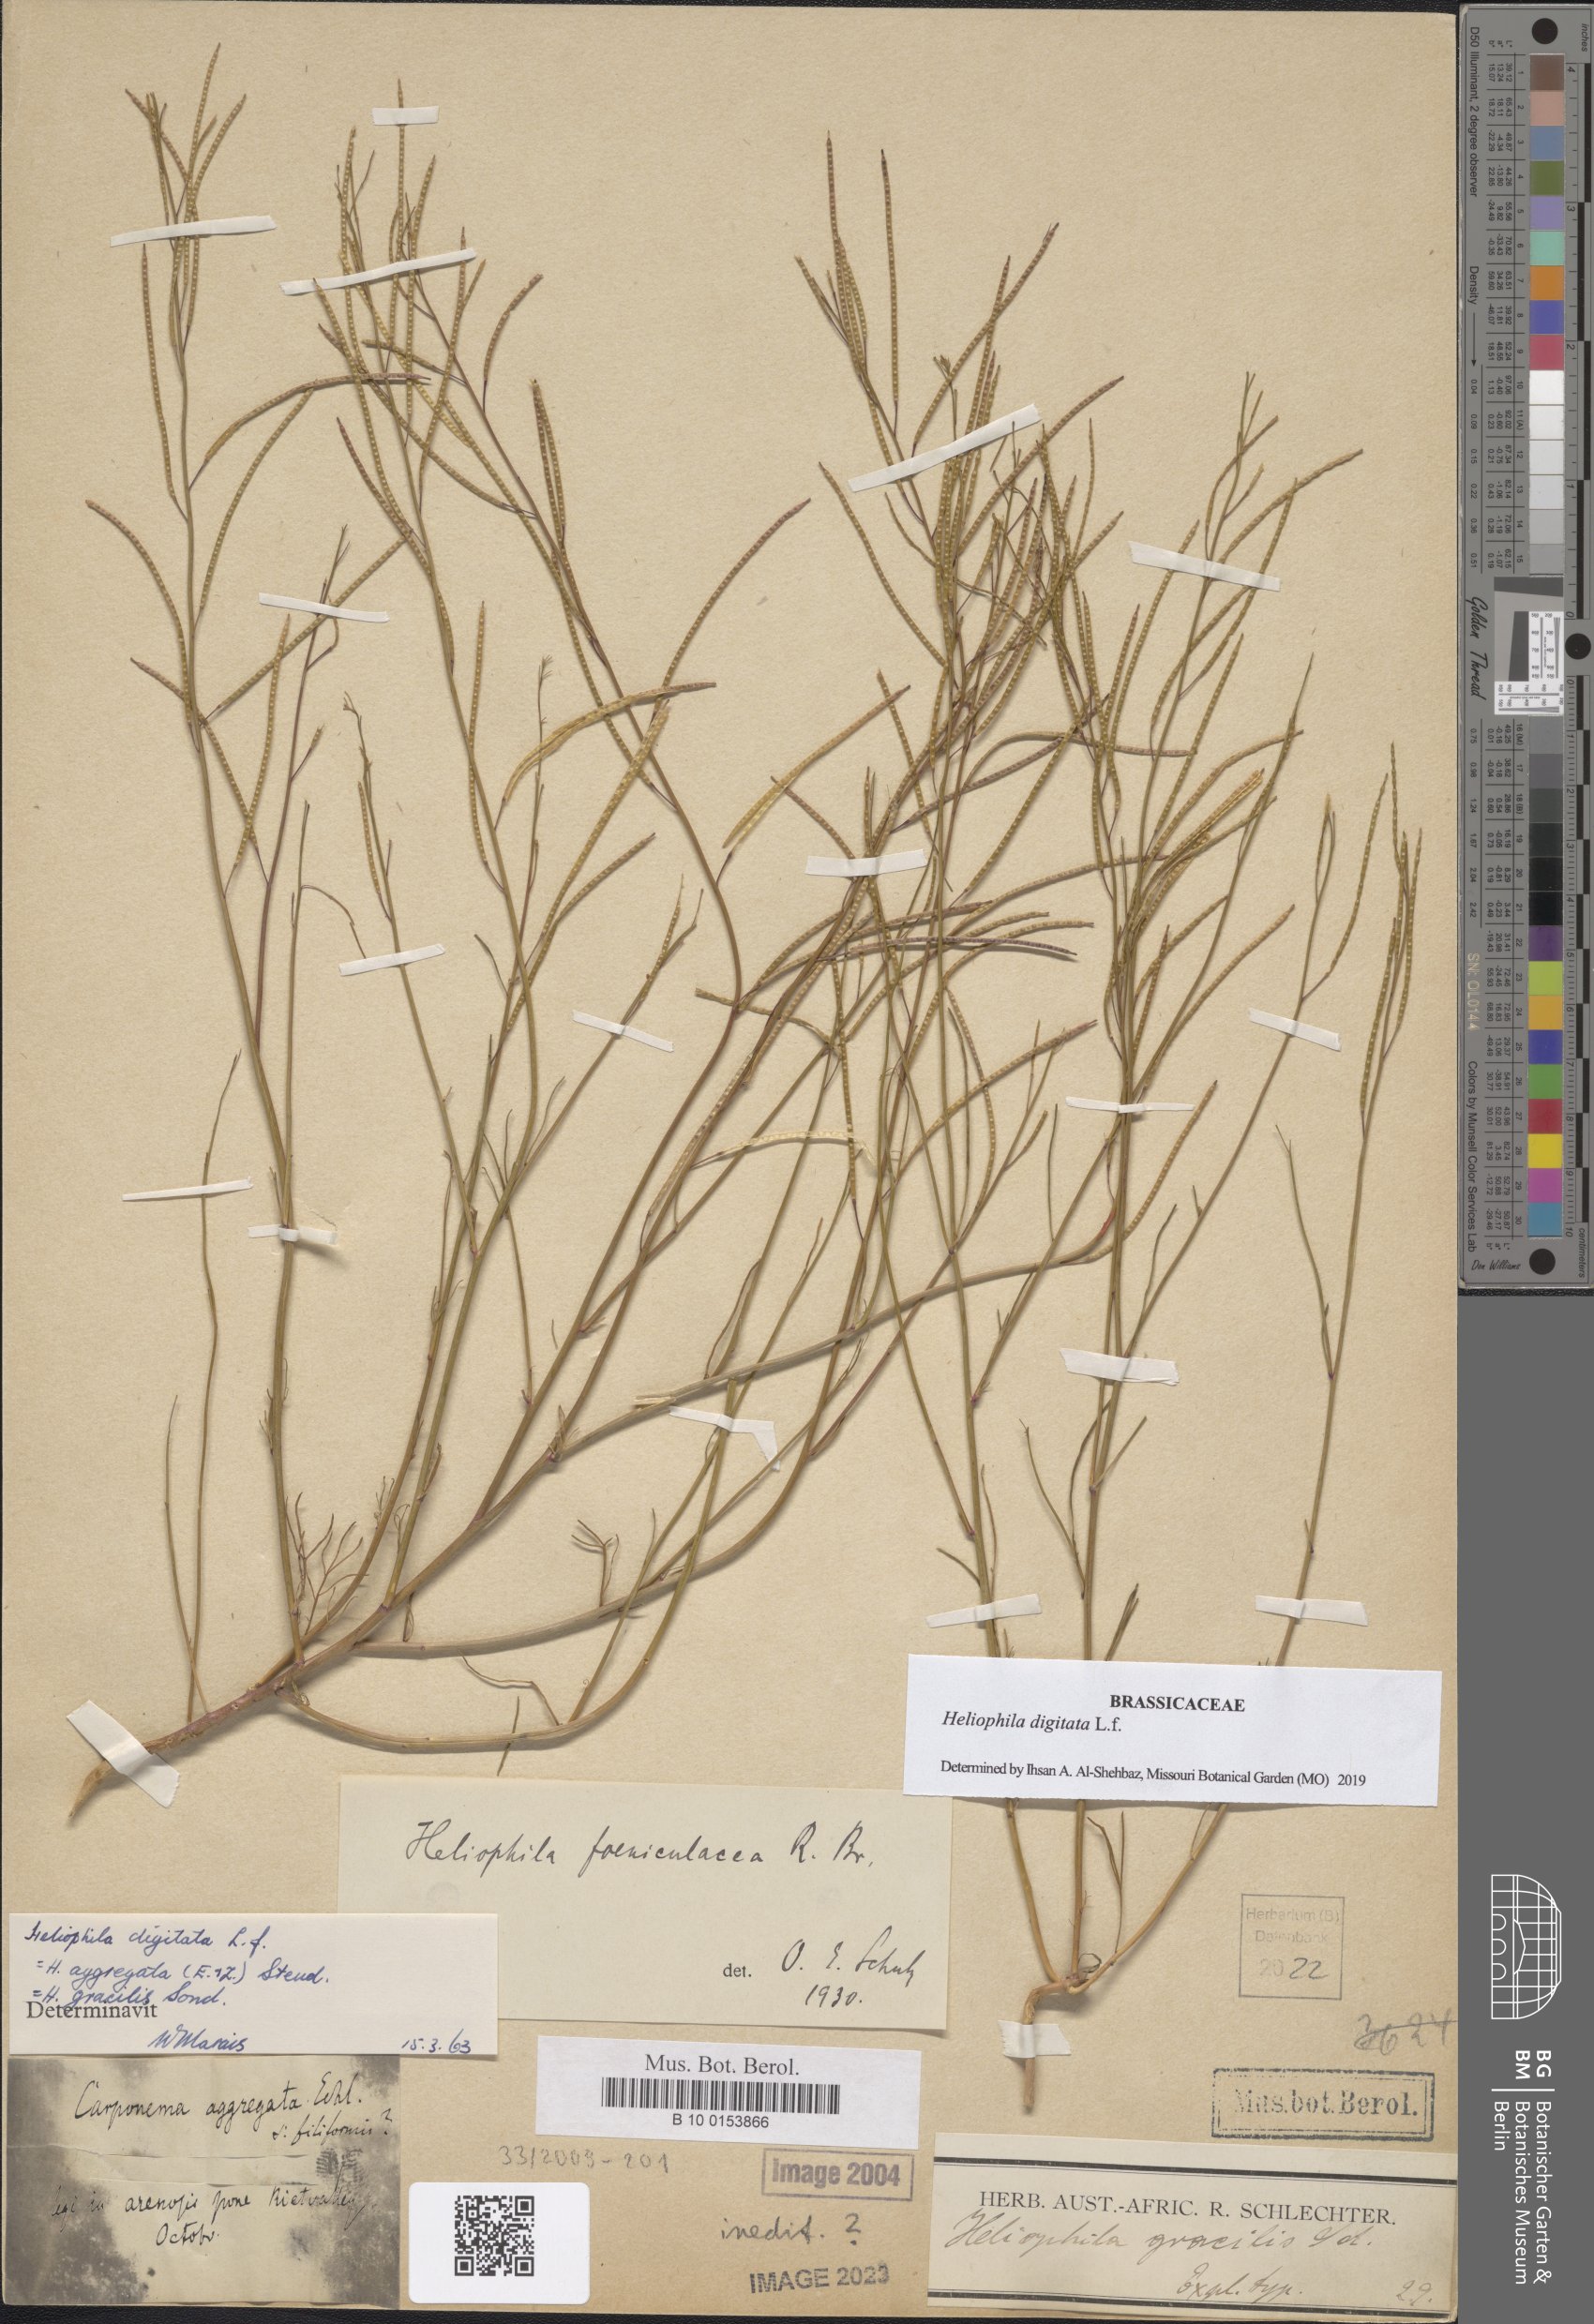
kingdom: Plantae
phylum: Tracheophyta
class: Magnoliopsida
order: Brassicales
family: Brassicaceae
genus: Heliophila
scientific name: Heliophila digitata
